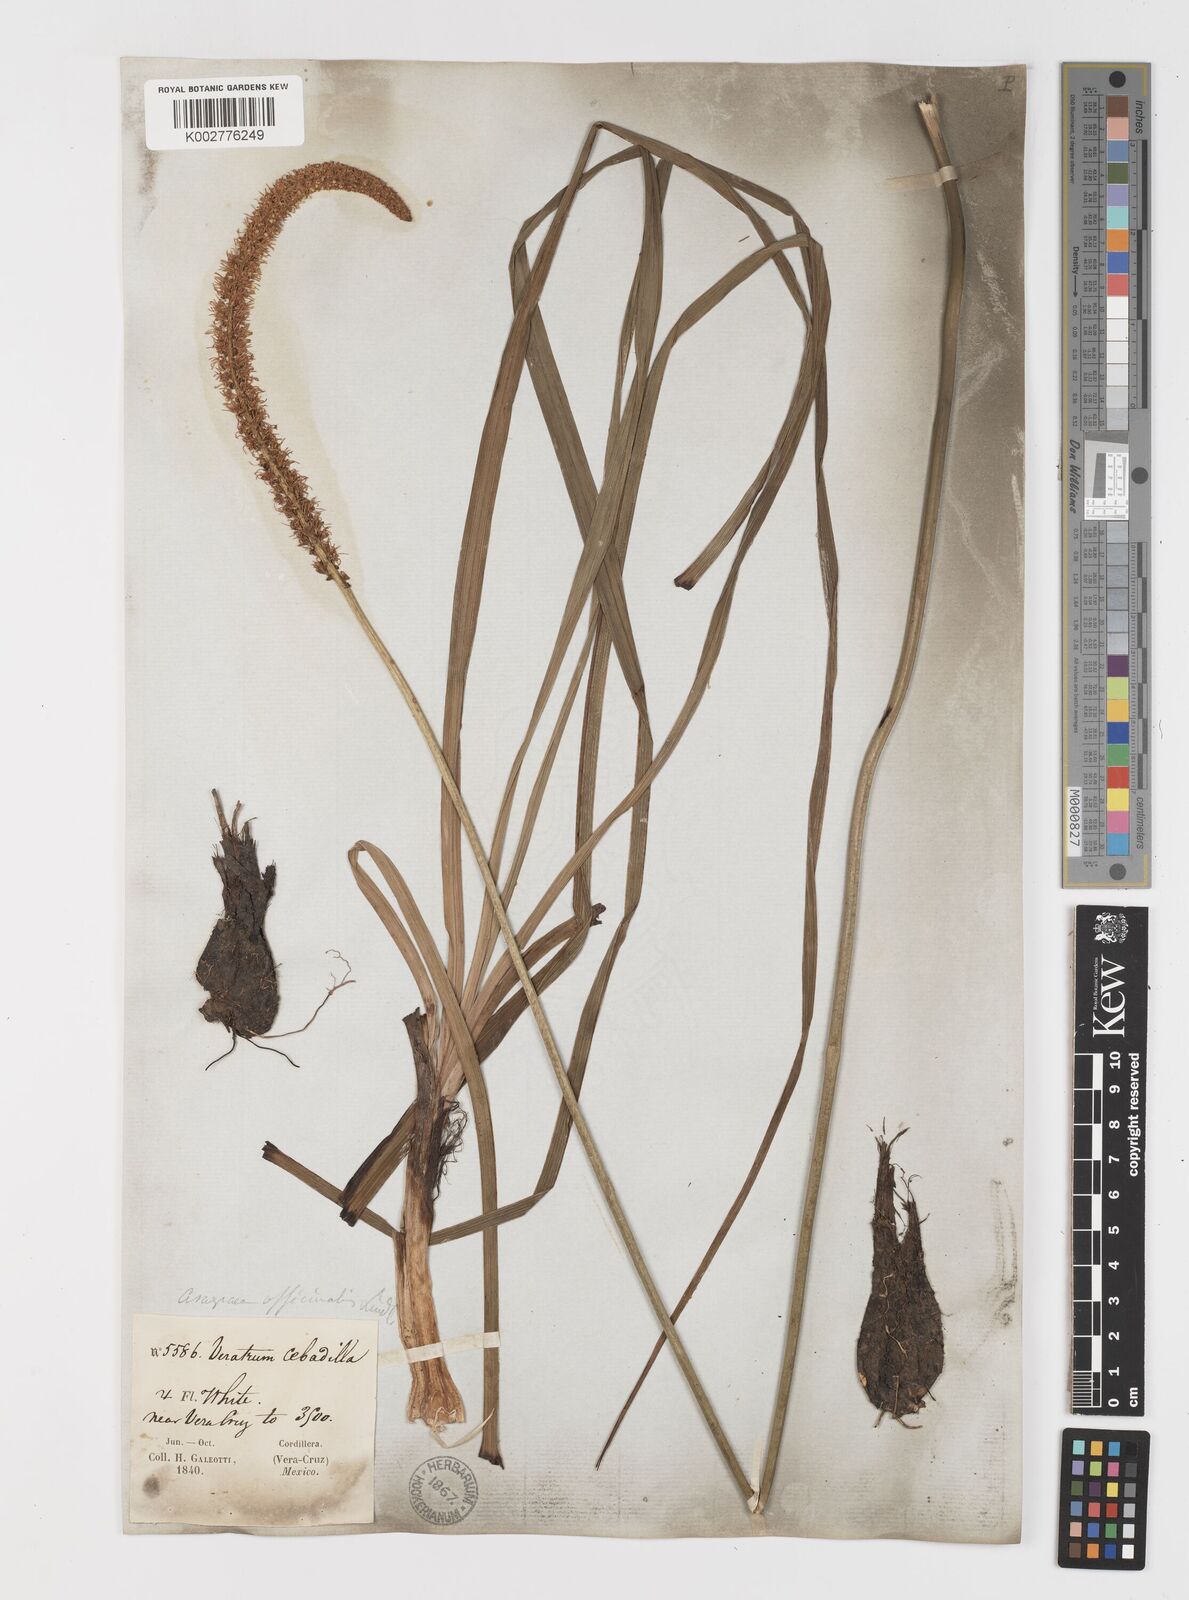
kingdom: Plantae
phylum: Tracheophyta
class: Liliopsida
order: Liliales
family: Melanthiaceae
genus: Schoenocaulon
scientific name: Schoenocaulon officinale
